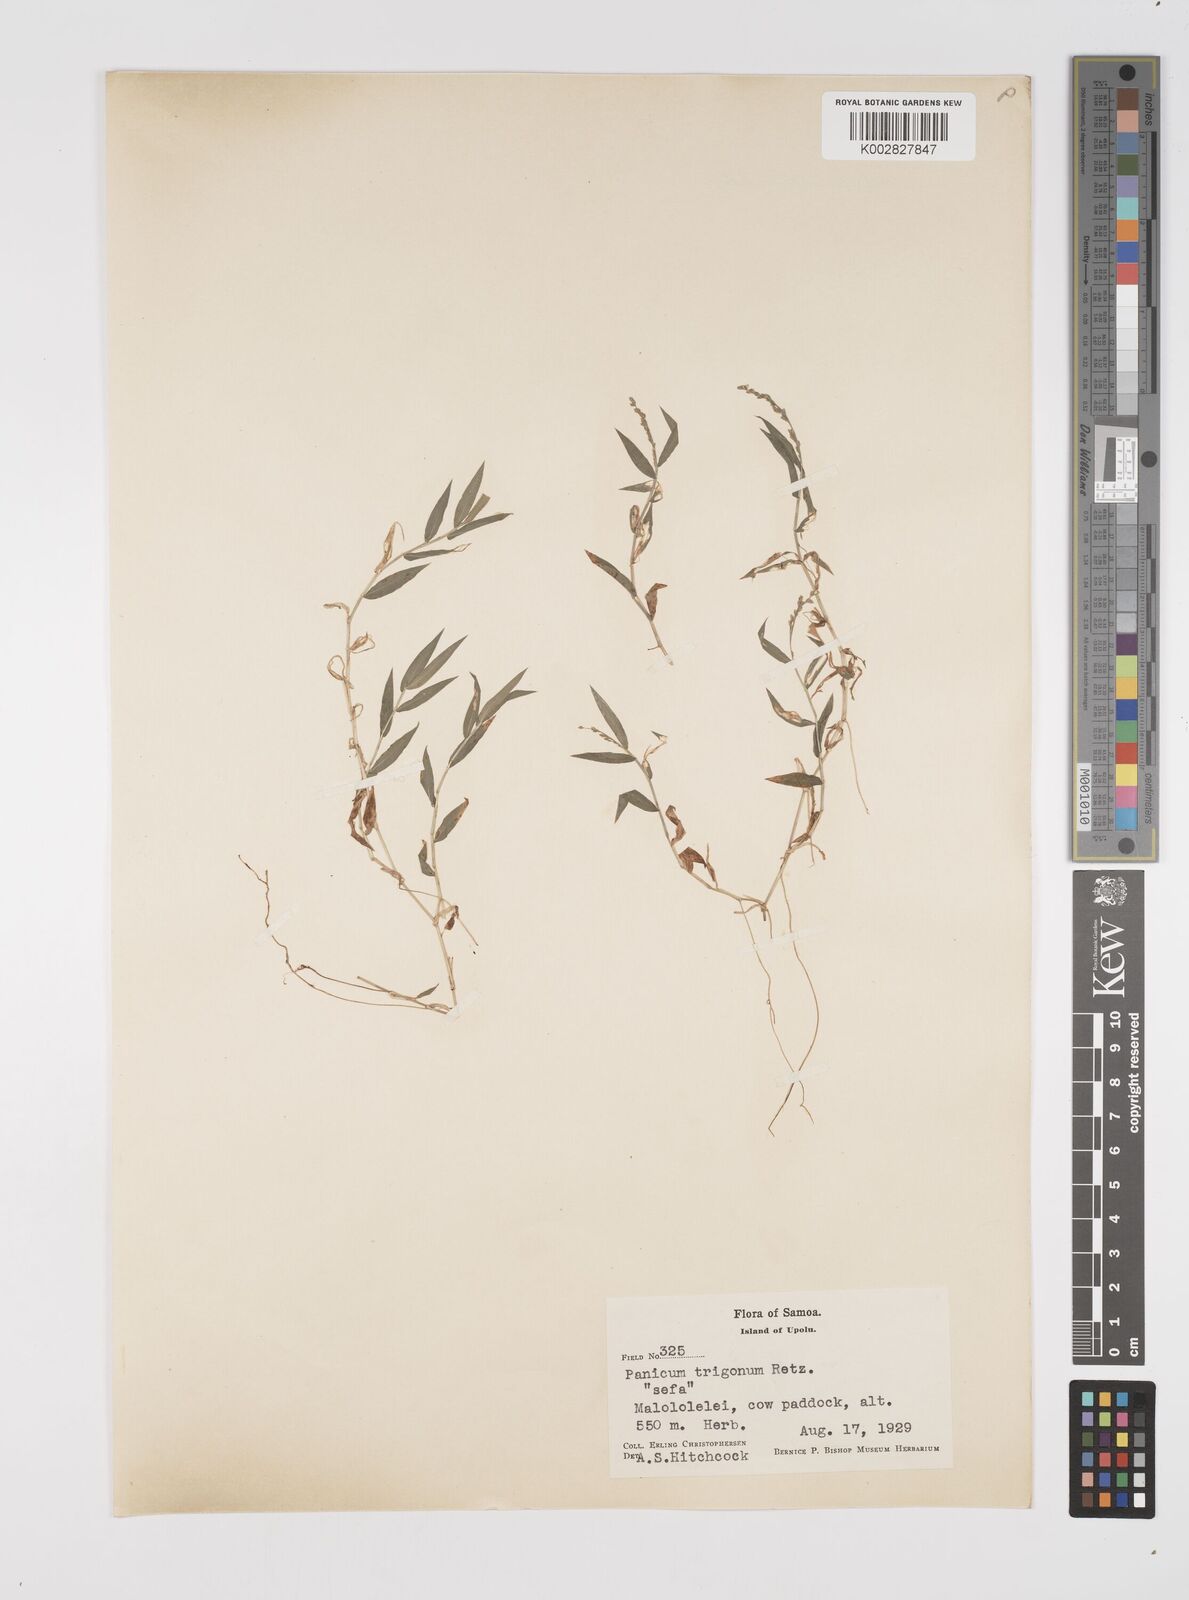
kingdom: Plantae
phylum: Tracheophyta
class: Liliopsida
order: Poales
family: Poaceae
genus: Cyrtococcum
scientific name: Cyrtococcum trigonum
